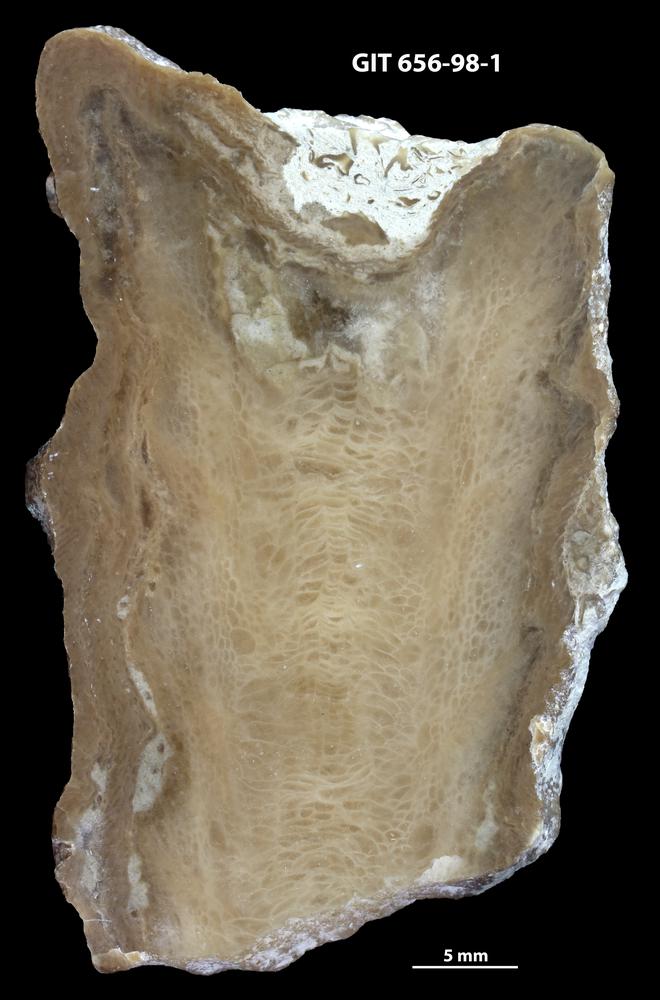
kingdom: Animalia
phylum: Cnidaria
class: Anthozoa
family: Alveolitidae
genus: Kitakamiia
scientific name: Kitakamiia
